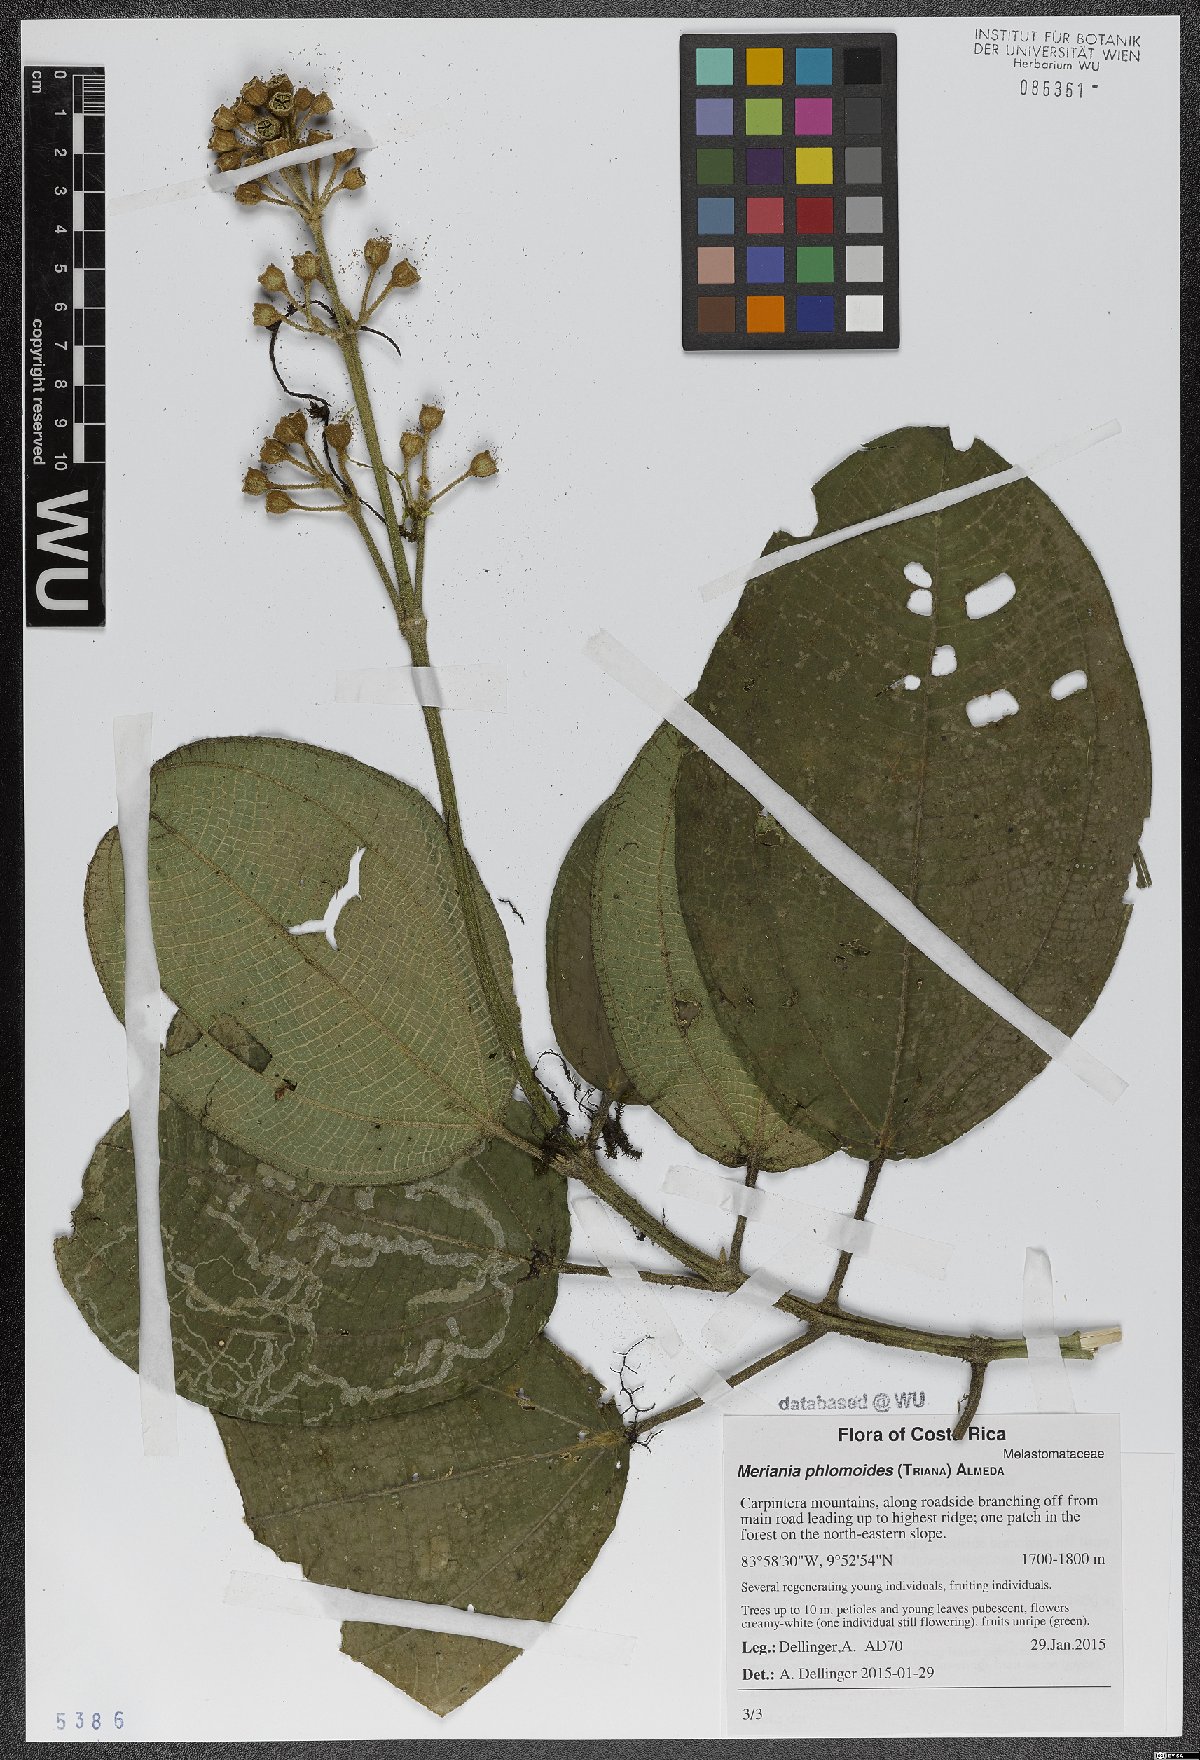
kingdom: Plantae
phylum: Tracheophyta
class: Magnoliopsida
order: Myrtales
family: Melastomataceae
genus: Meriania
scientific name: Meriania phlomoides
